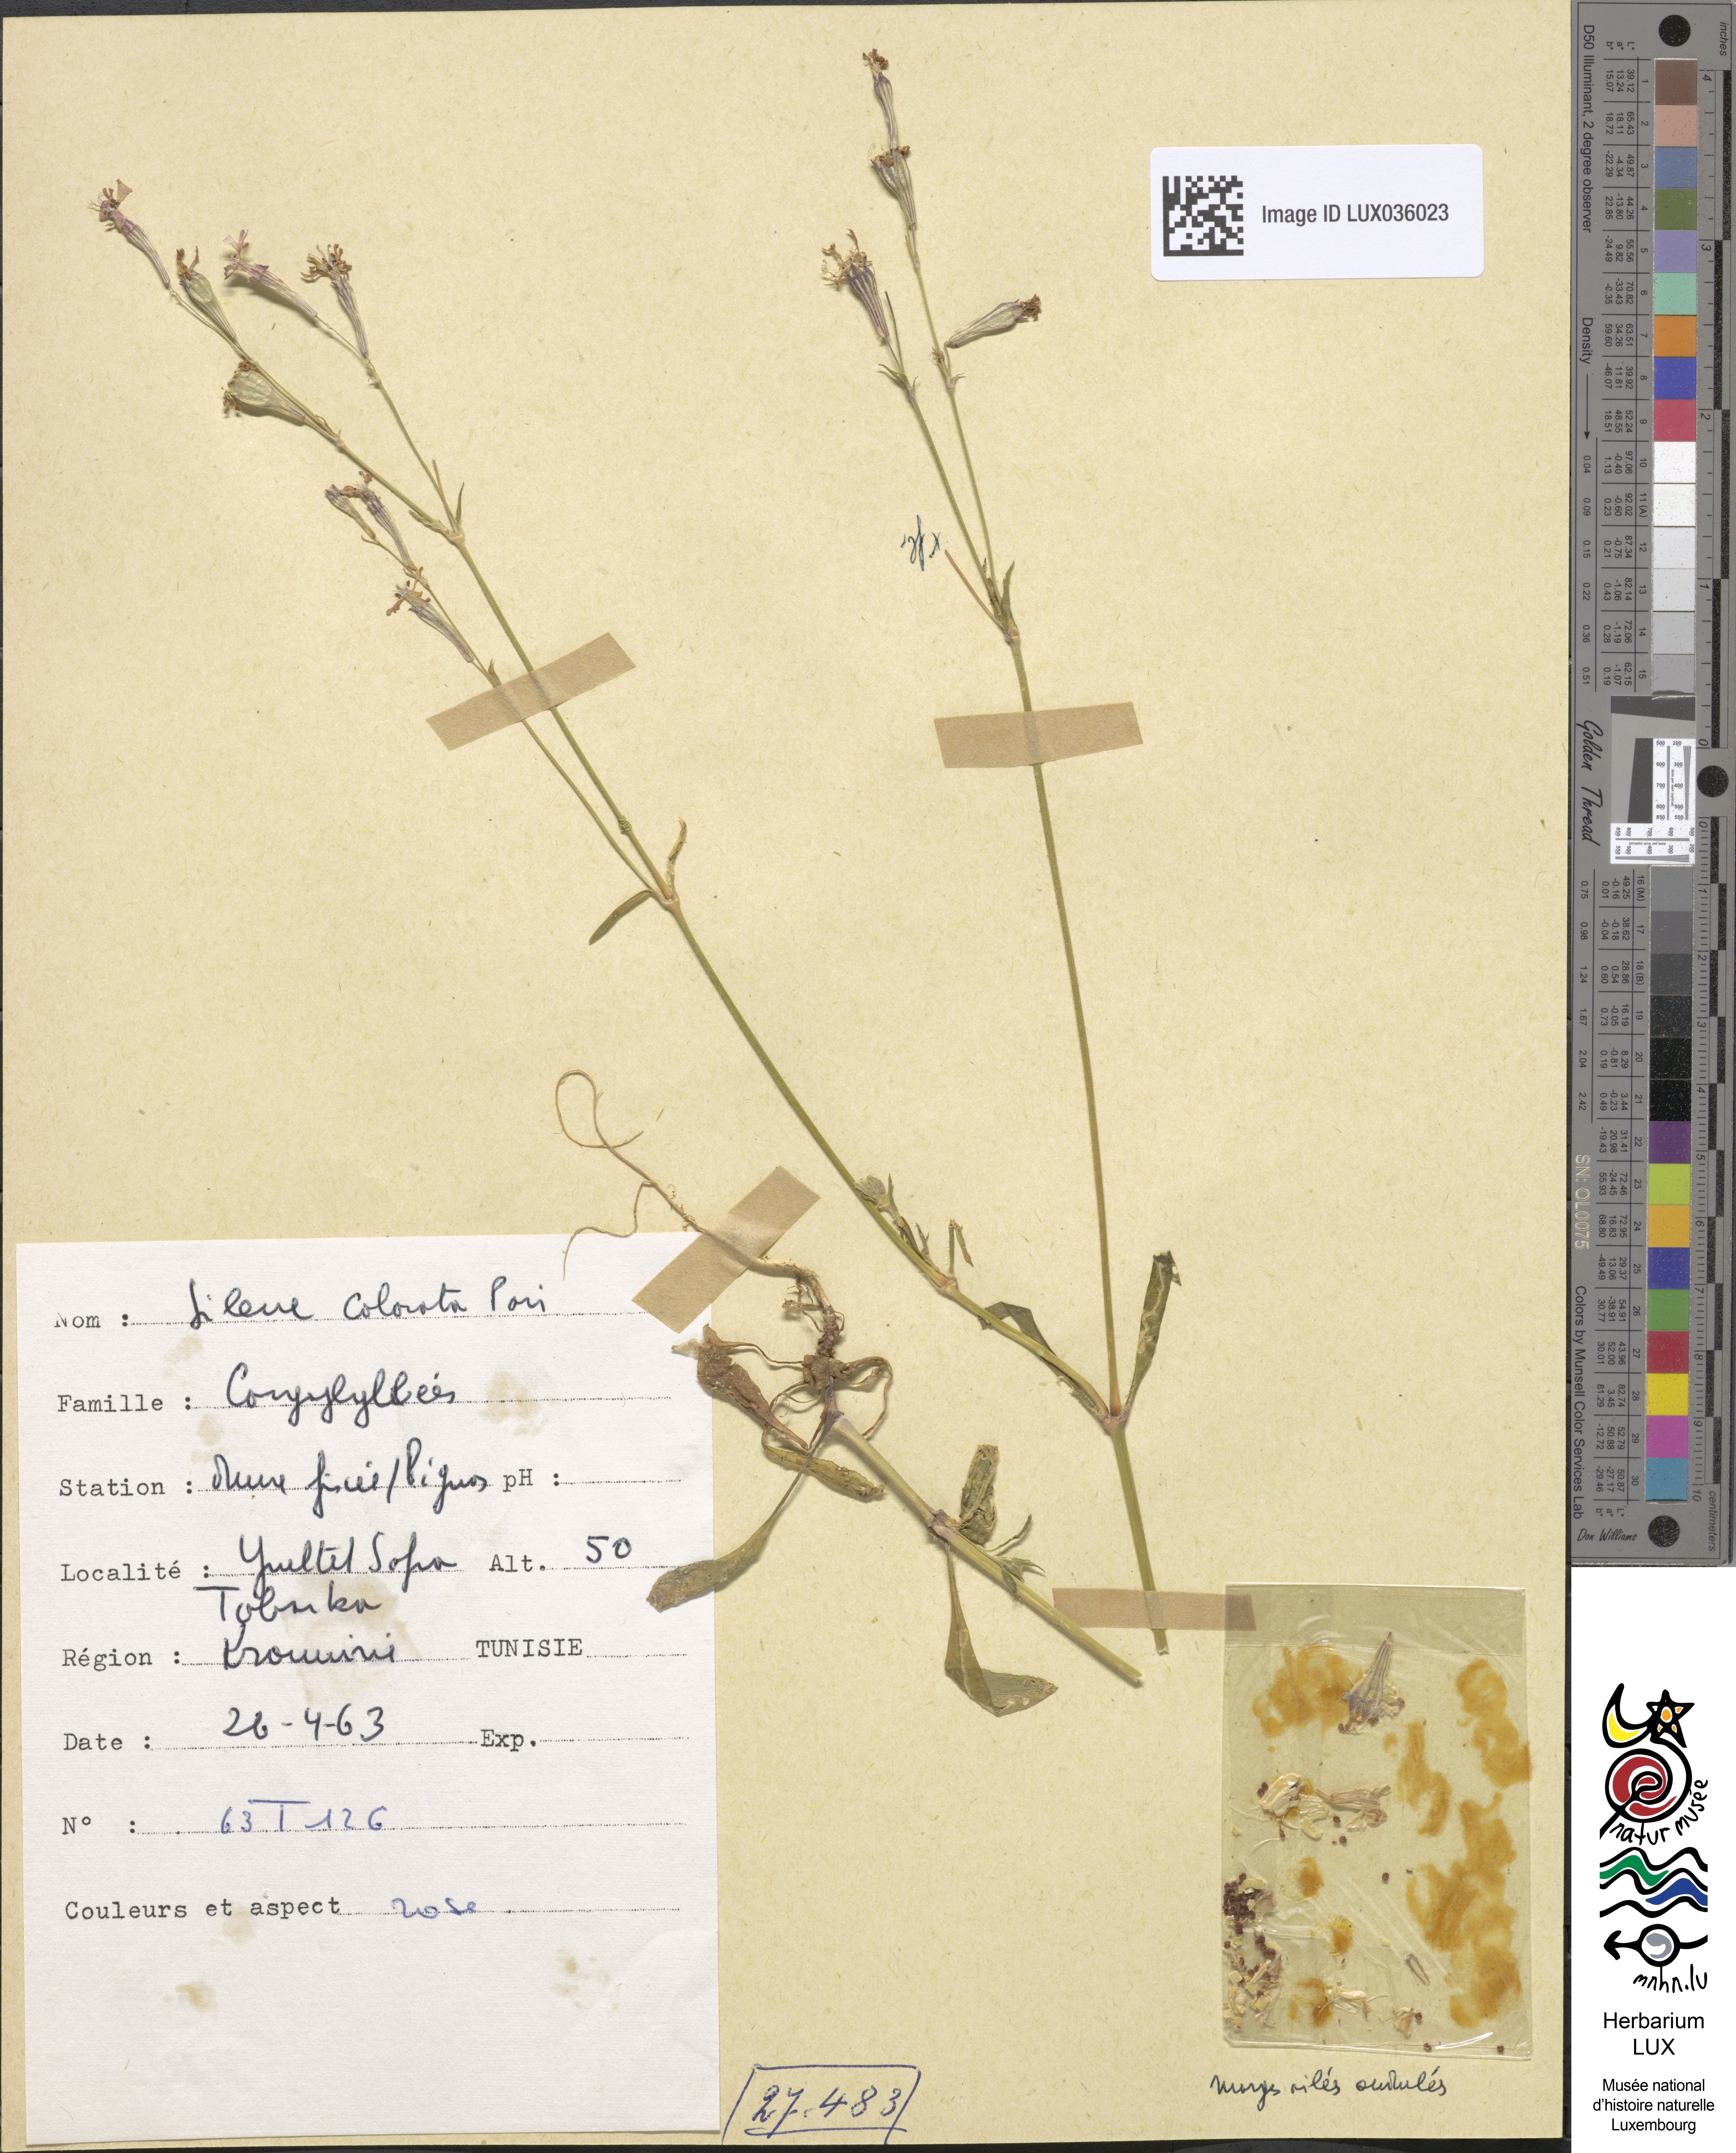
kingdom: Plantae
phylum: Tracheophyta
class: Magnoliopsida
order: Caryophyllales
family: Caryophyllaceae
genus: Silene
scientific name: Silene colorata
